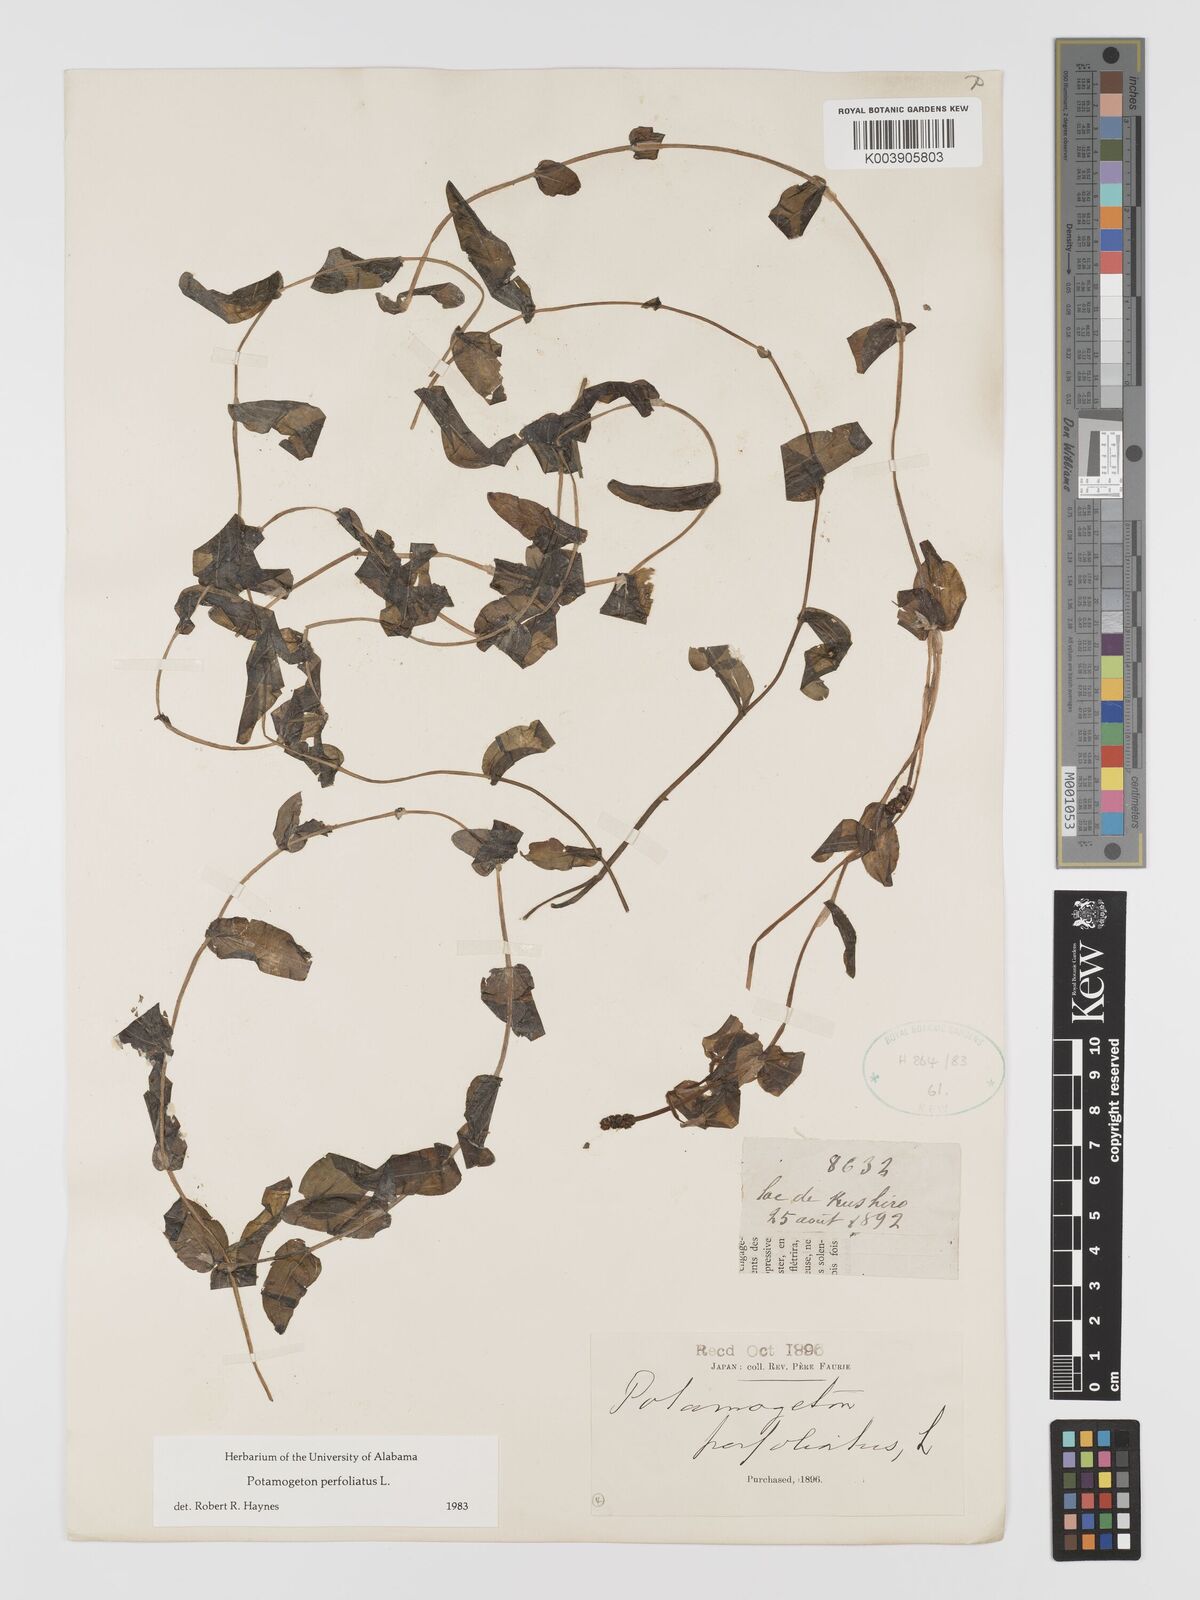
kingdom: Plantae
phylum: Tracheophyta
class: Liliopsida
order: Alismatales
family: Potamogetonaceae
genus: Potamogeton
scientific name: Potamogeton perfoliatus
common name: Perfoliate pondweed
